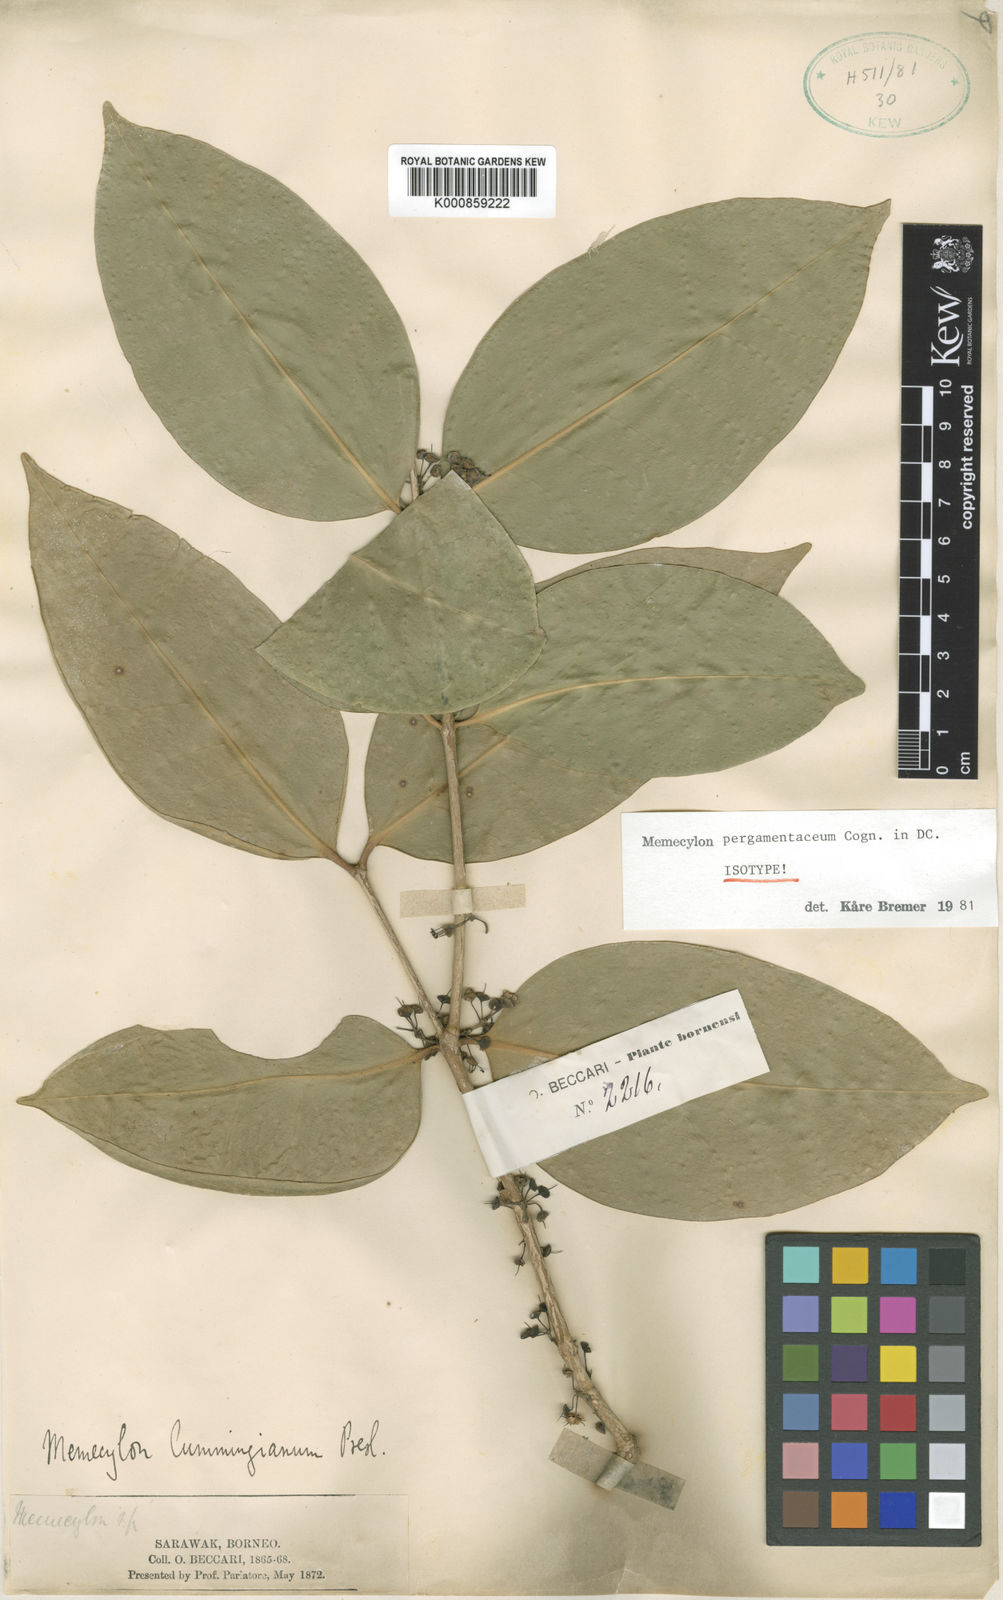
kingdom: Plantae
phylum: Tracheophyta
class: Magnoliopsida
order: Myrtales
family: Melastomataceae
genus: Memecylon
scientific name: Memecylon pergamentaceum
